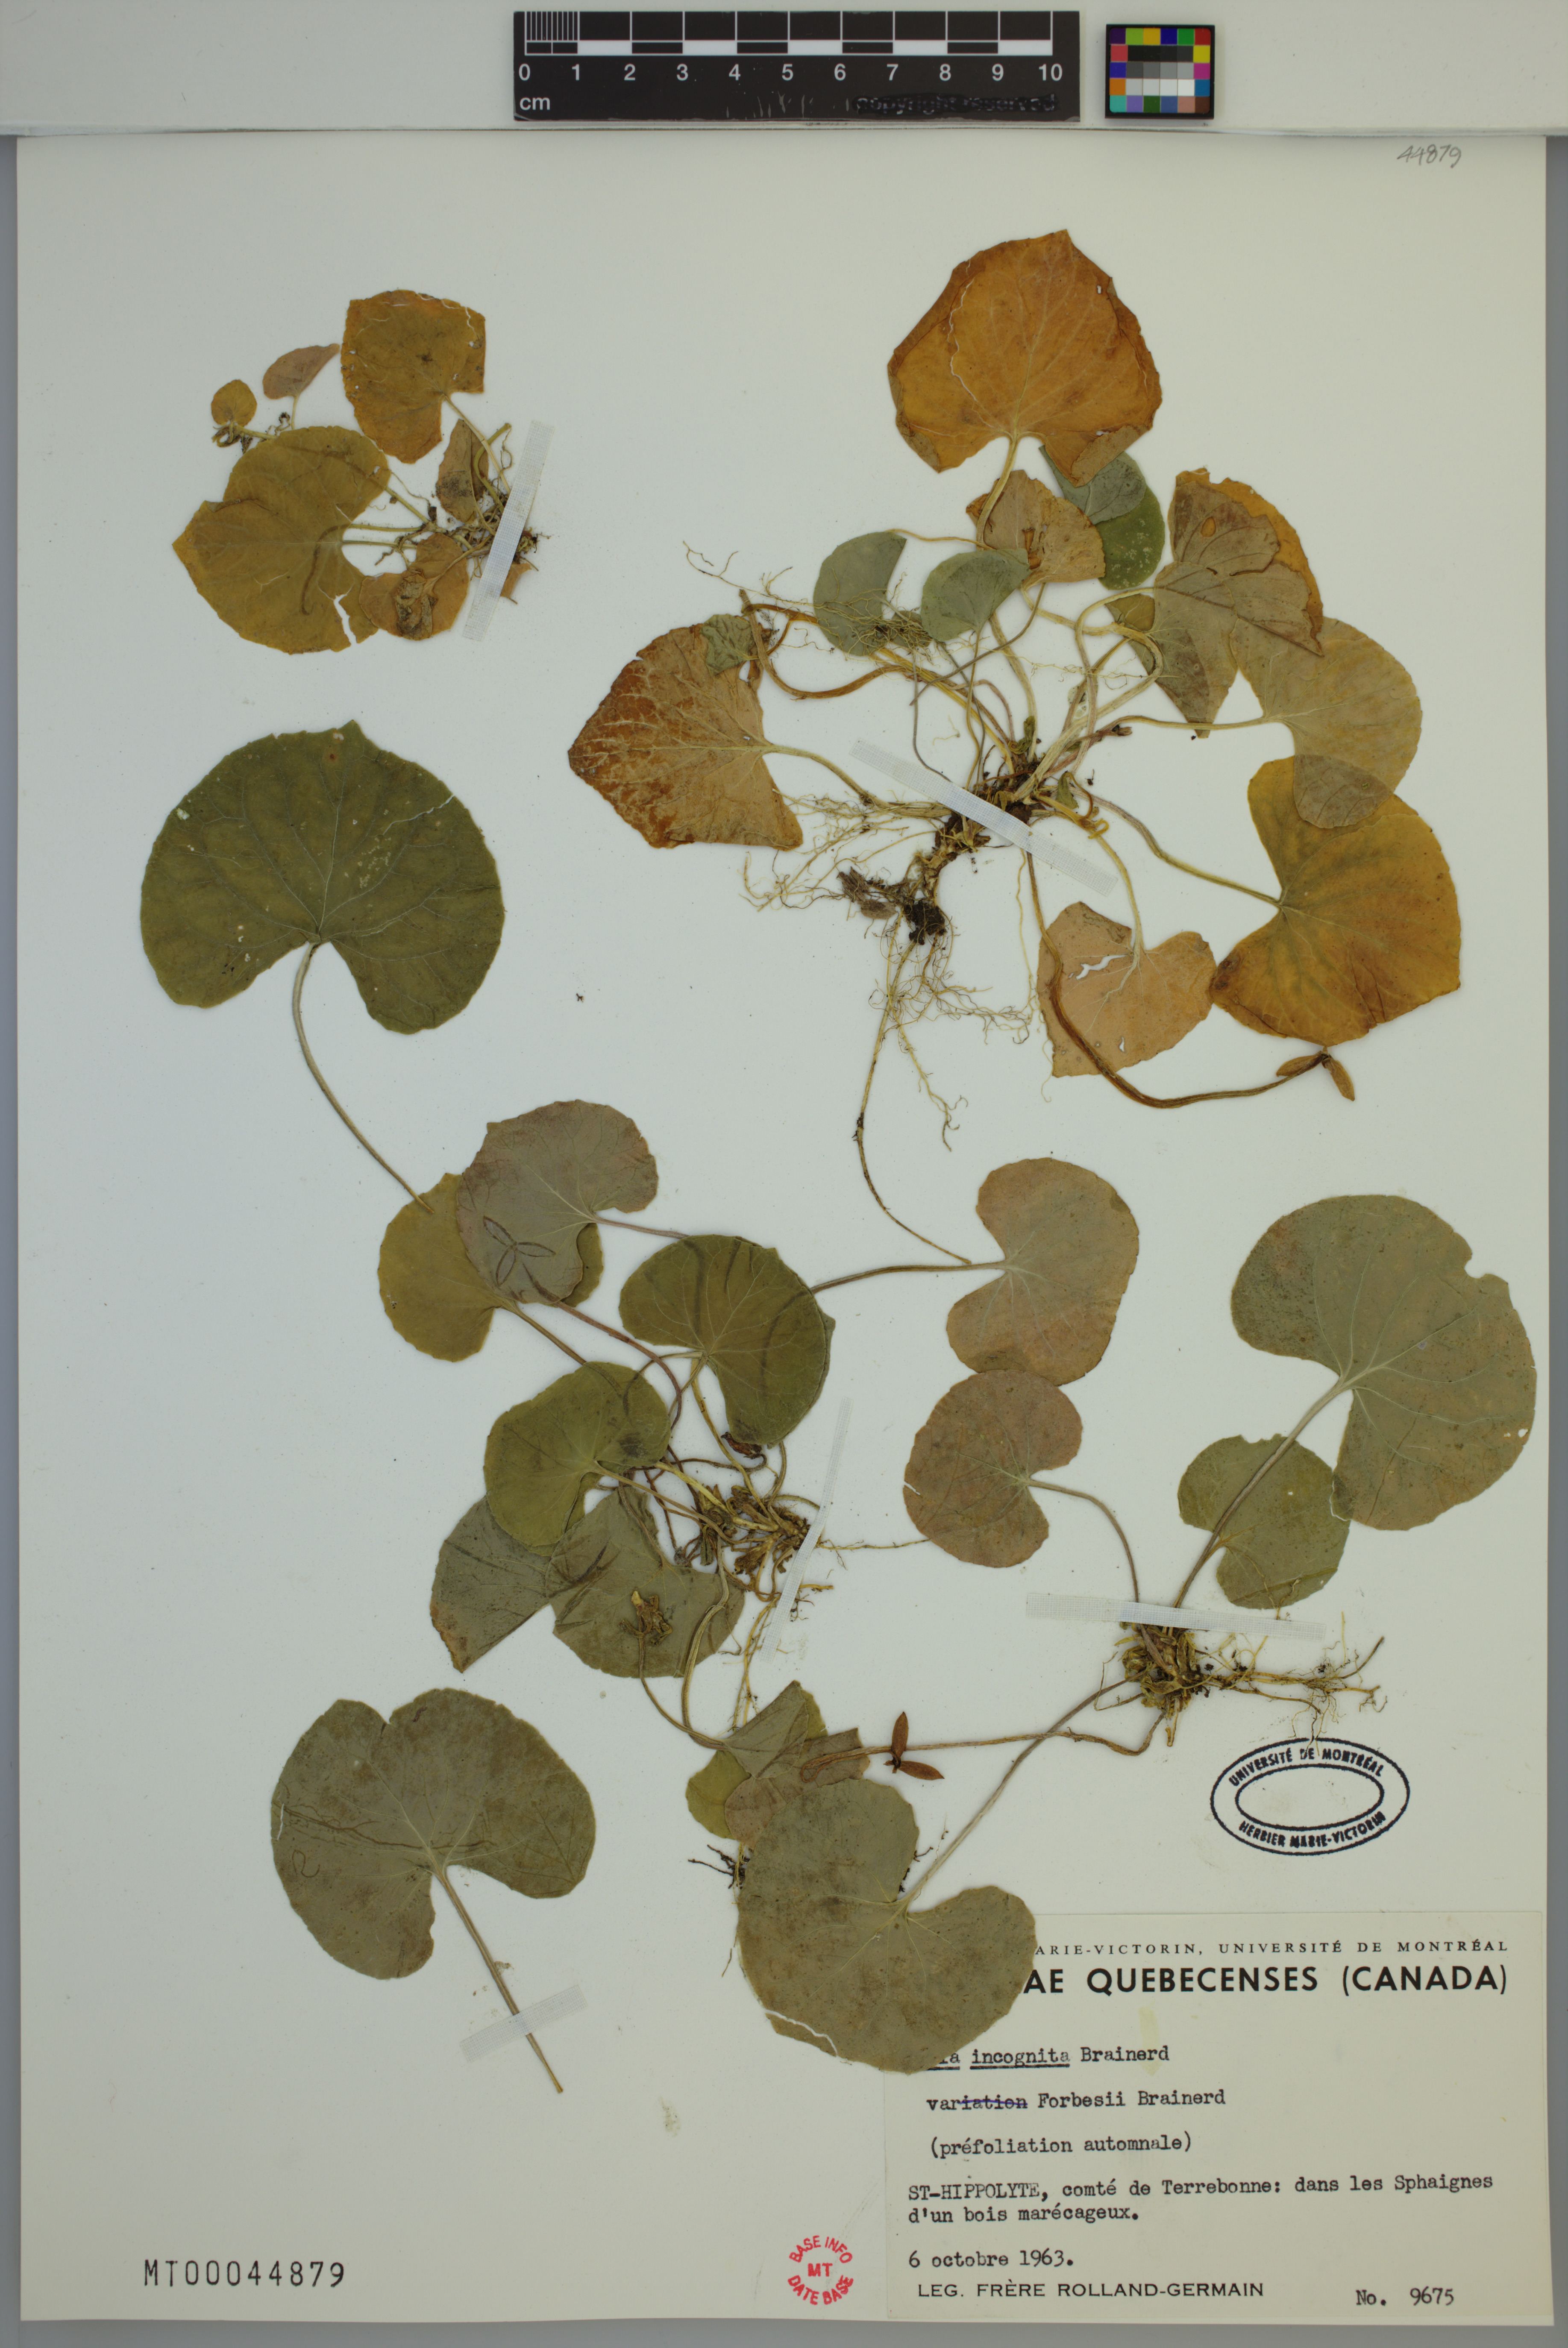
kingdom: Plantae
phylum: Tracheophyta
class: Magnoliopsida
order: Malpighiales
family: Violaceae
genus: Viola
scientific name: Viola blanda
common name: Sweet white violet
